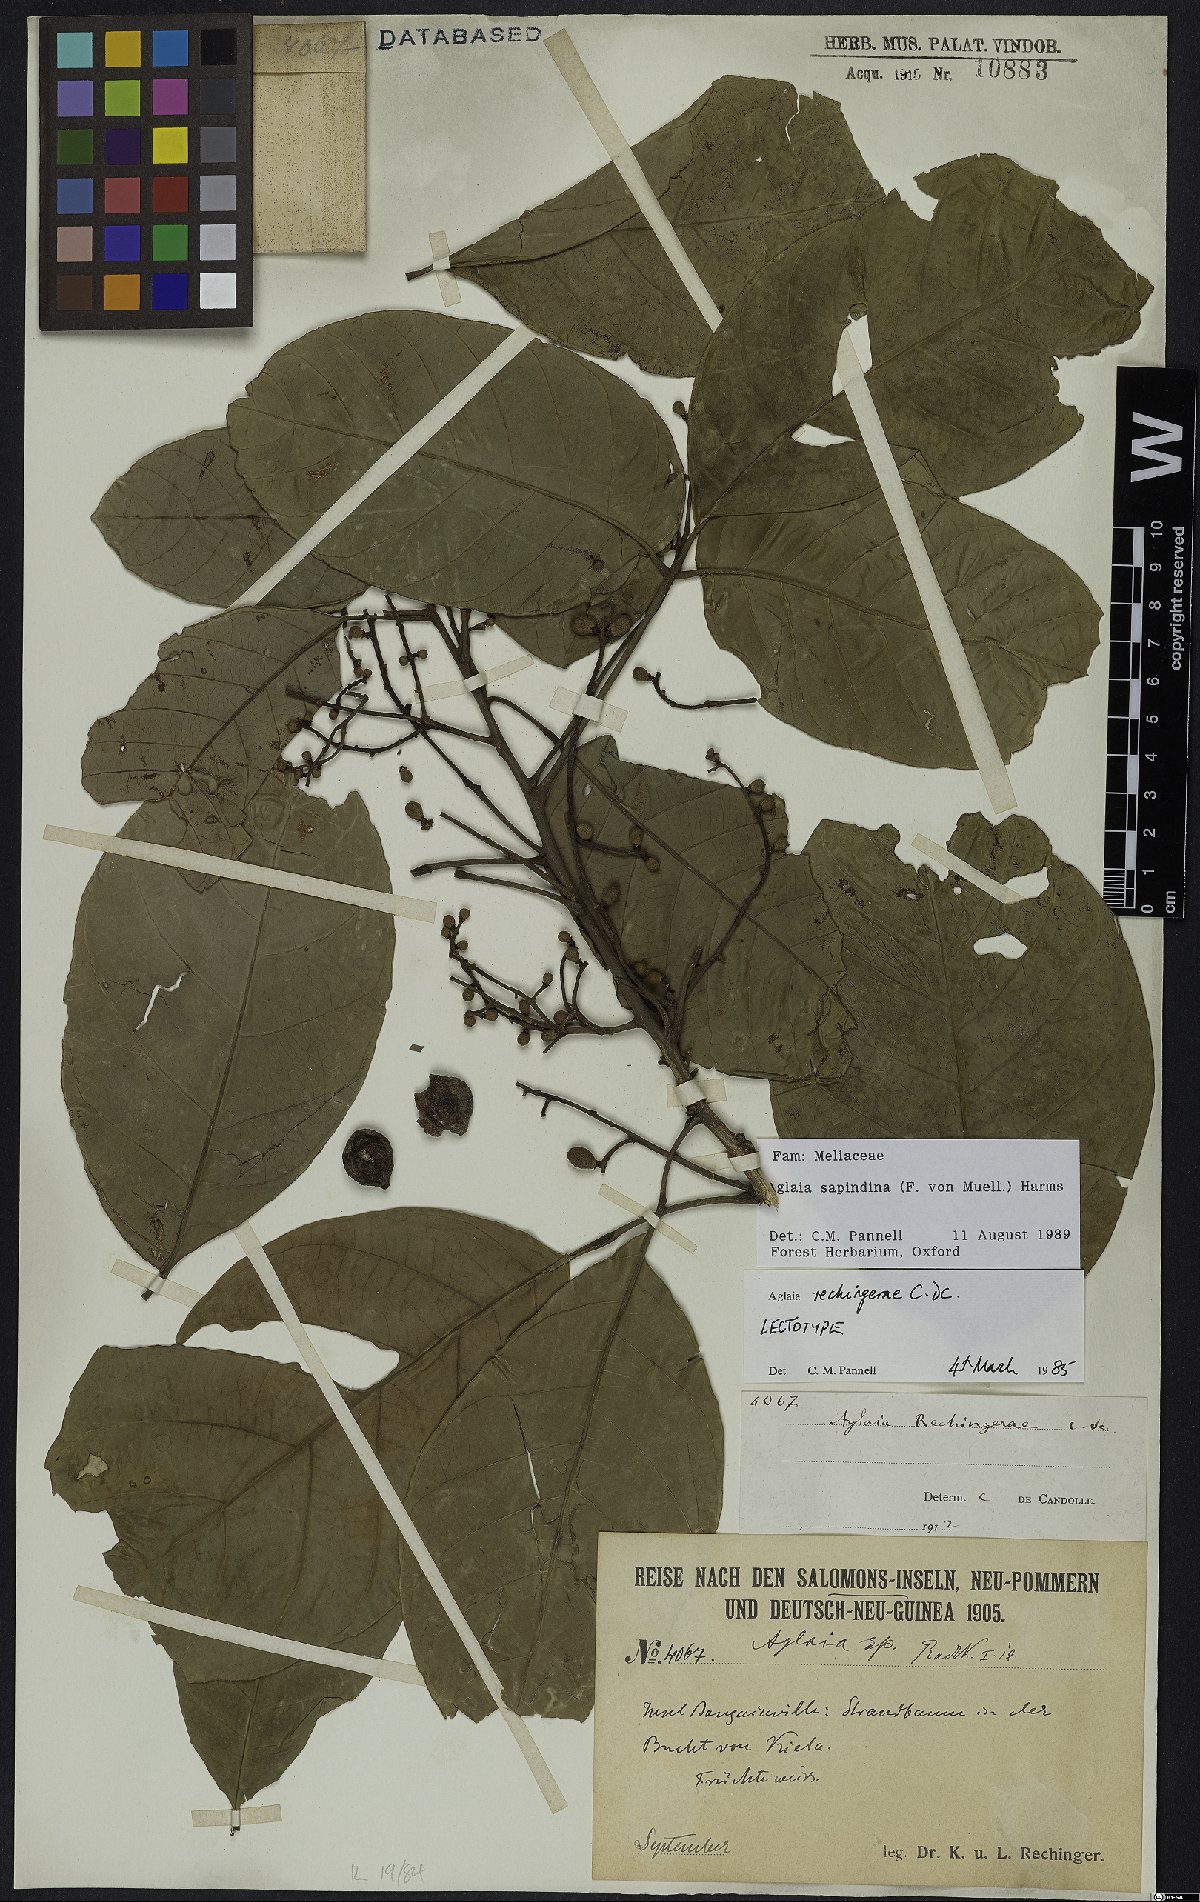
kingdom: Plantae
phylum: Tracheophyta
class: Magnoliopsida
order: Sapindales
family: Meliaceae
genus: Aglaia
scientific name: Aglaia sapindina
